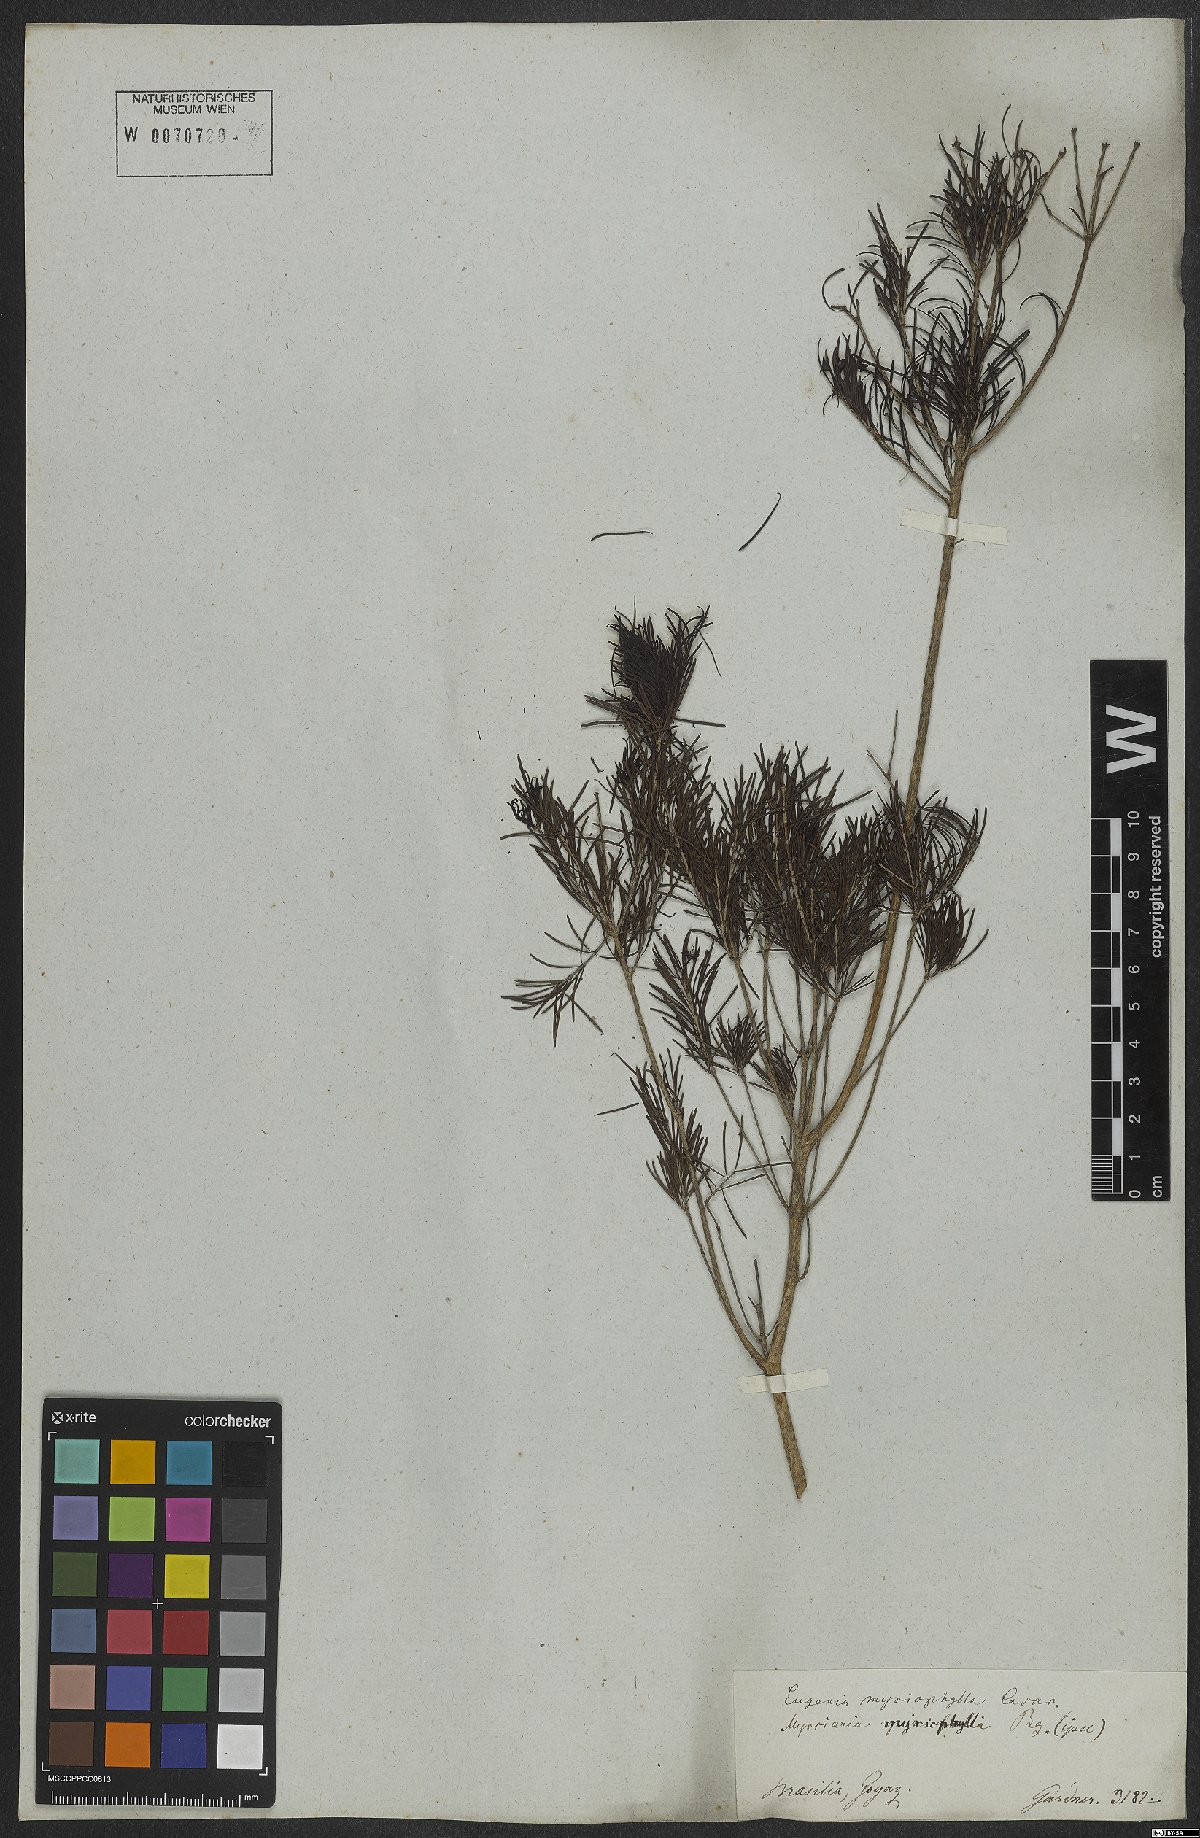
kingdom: Plantae
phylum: Tracheophyta
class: Magnoliopsida
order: Myrtales
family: Myrtaceae
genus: Blepharocalyx
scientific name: Blepharocalyx myriophyllus
